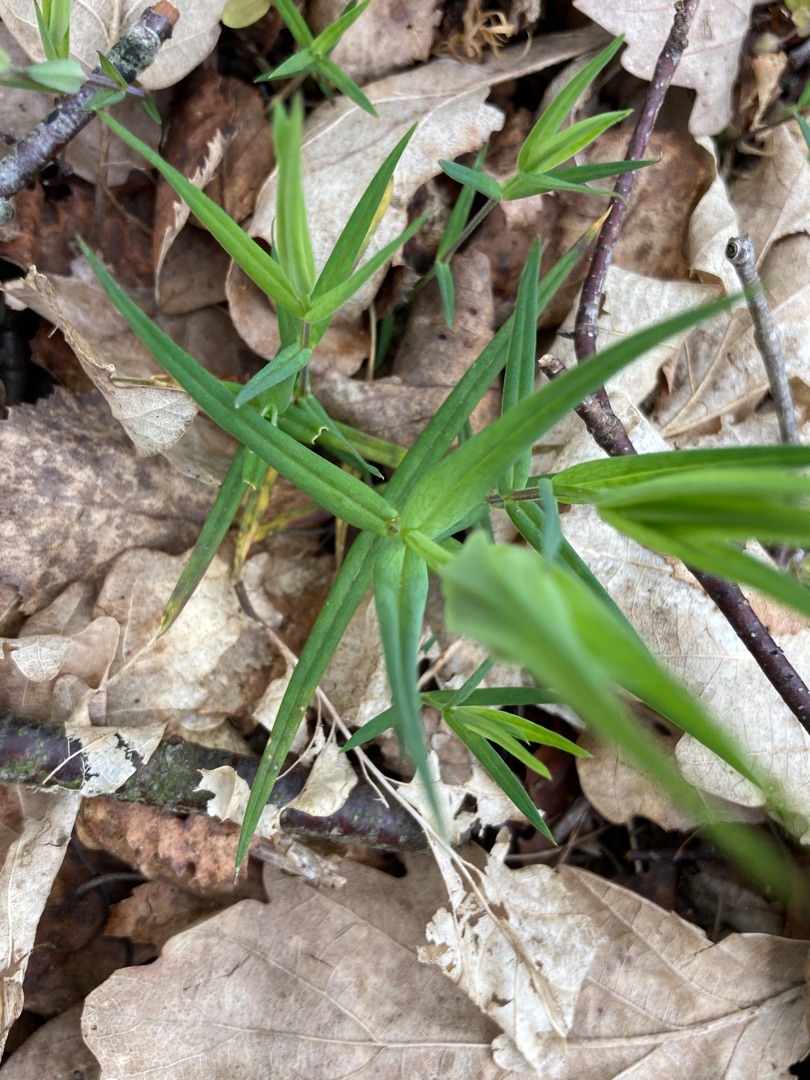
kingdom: Plantae
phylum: Tracheophyta
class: Magnoliopsida
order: Caryophyllales
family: Caryophyllaceae
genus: Rabelera
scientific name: Rabelera holostea
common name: Stor fladstjerne
